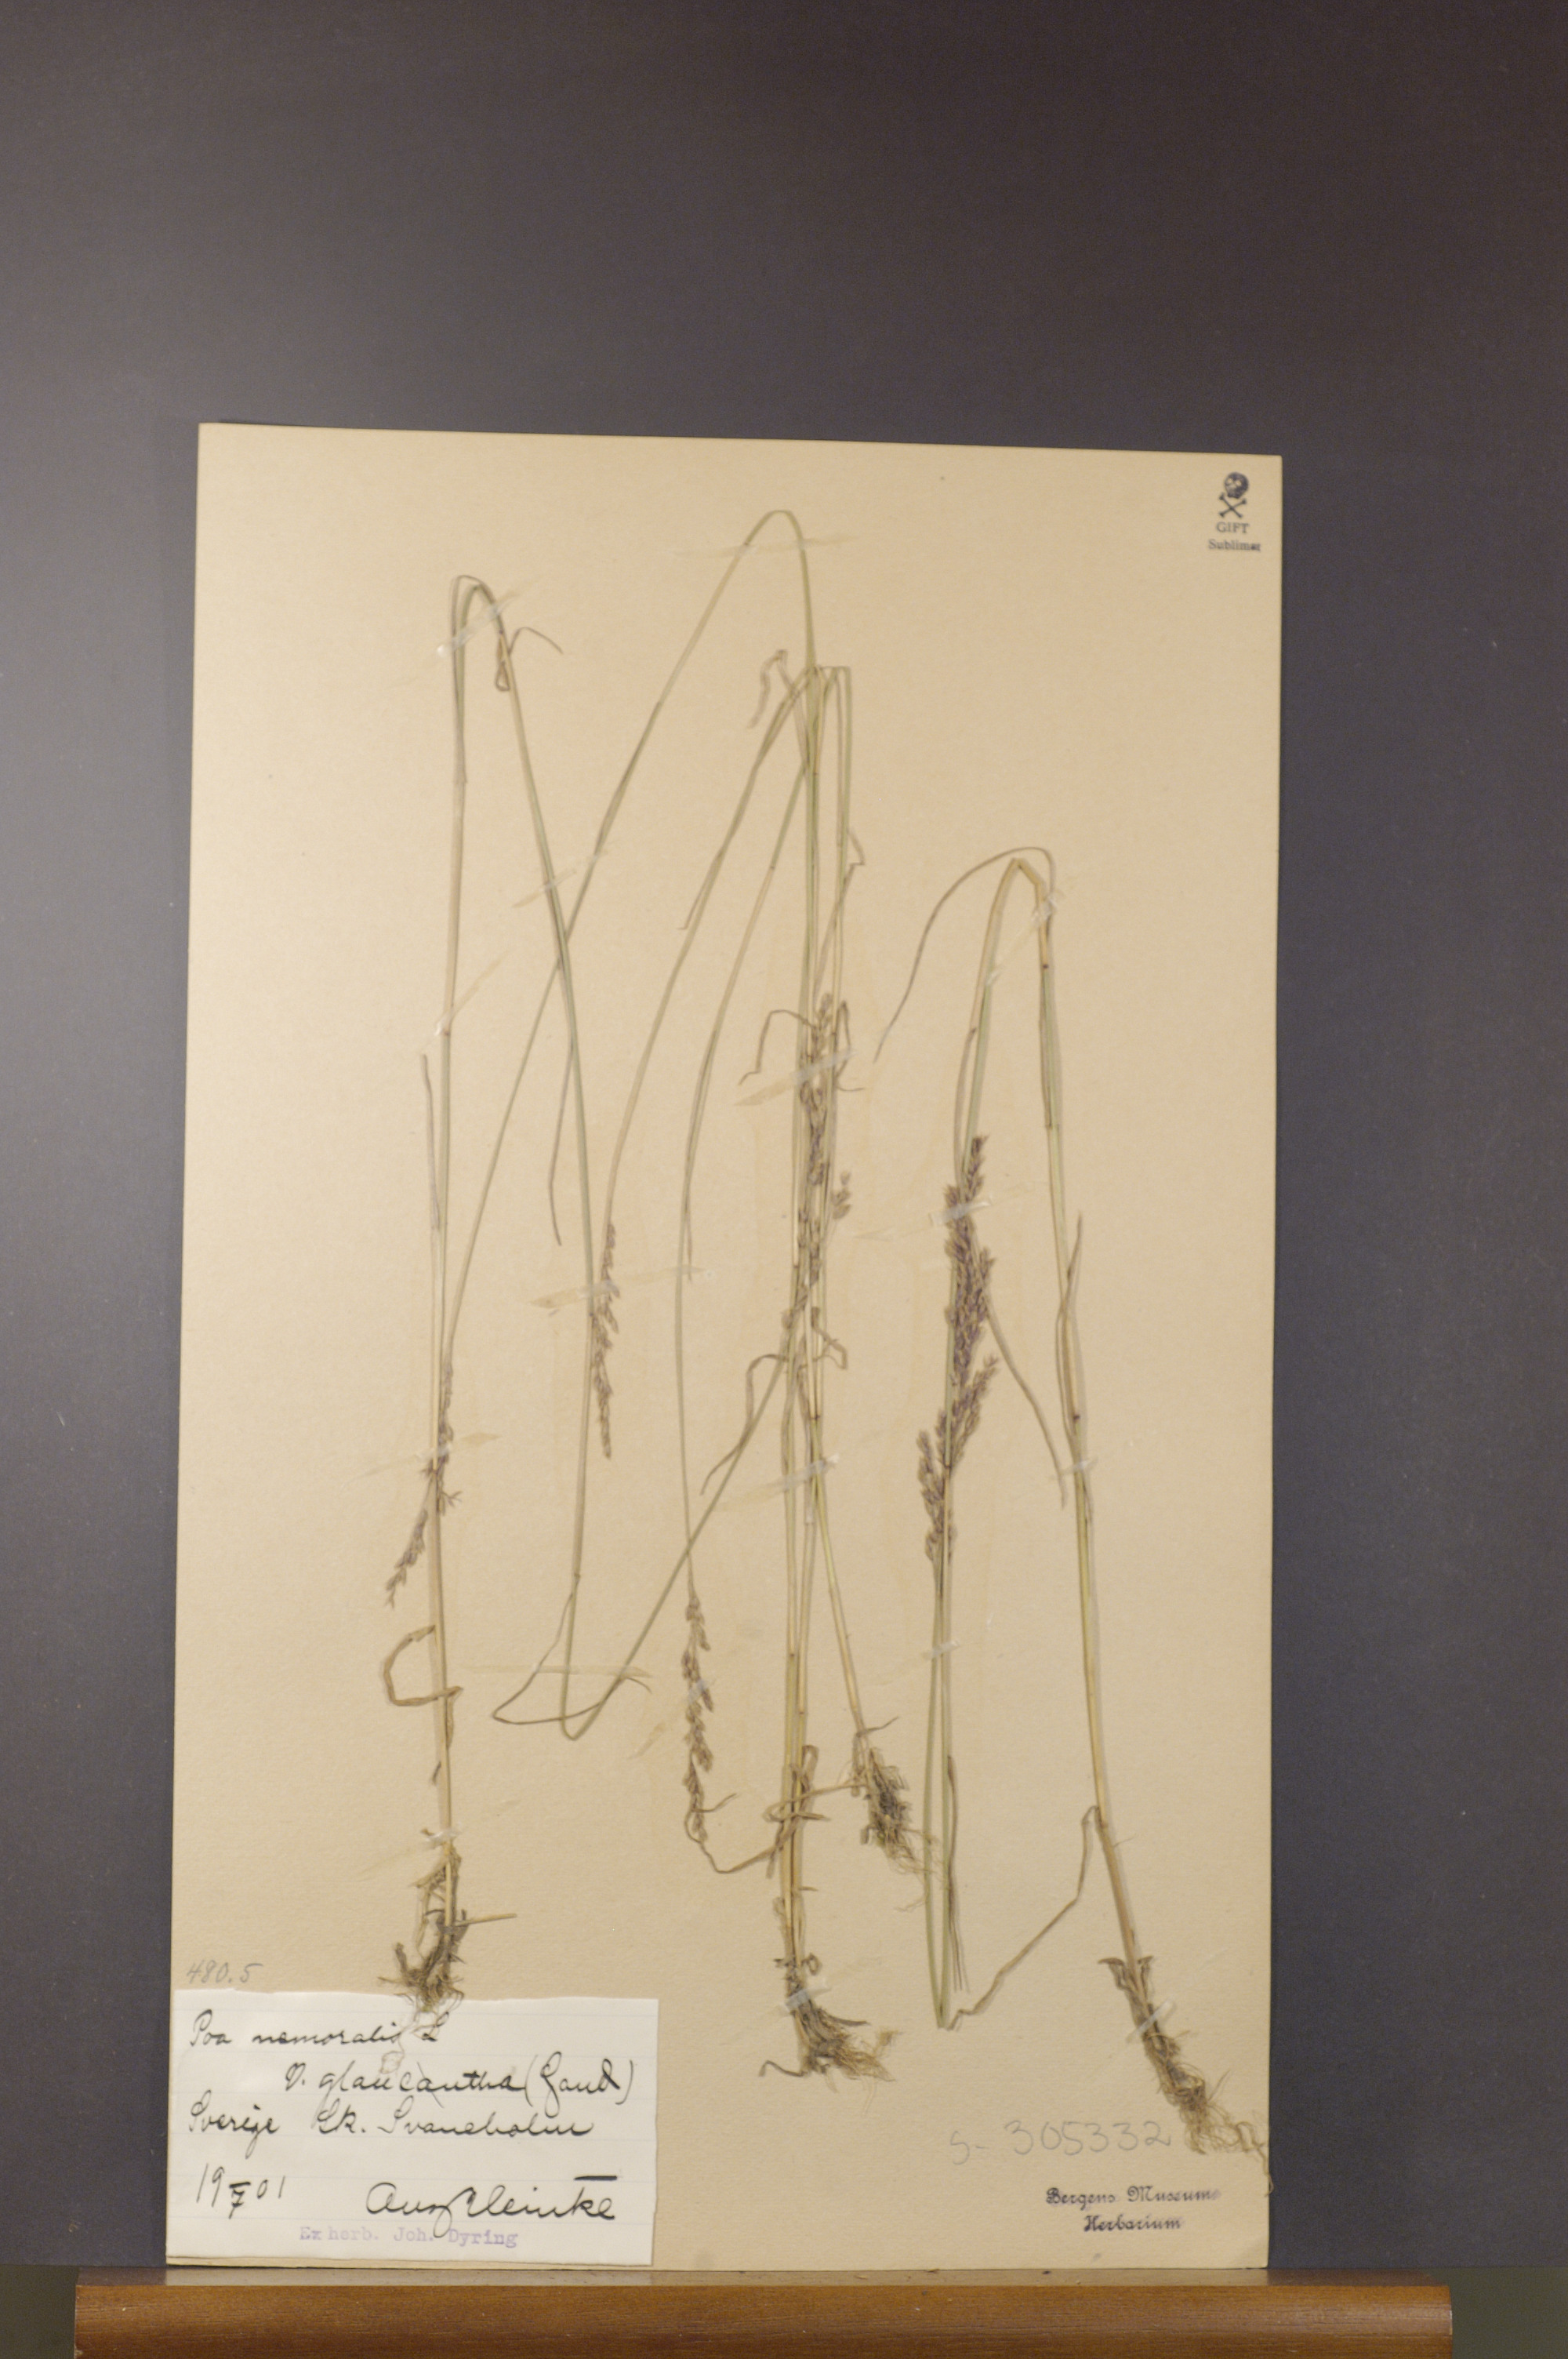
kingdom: Plantae
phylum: Tracheophyta
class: Liliopsida
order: Poales
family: Poaceae
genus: Poa
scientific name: Poa nemoralis
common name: Wood bluegrass
